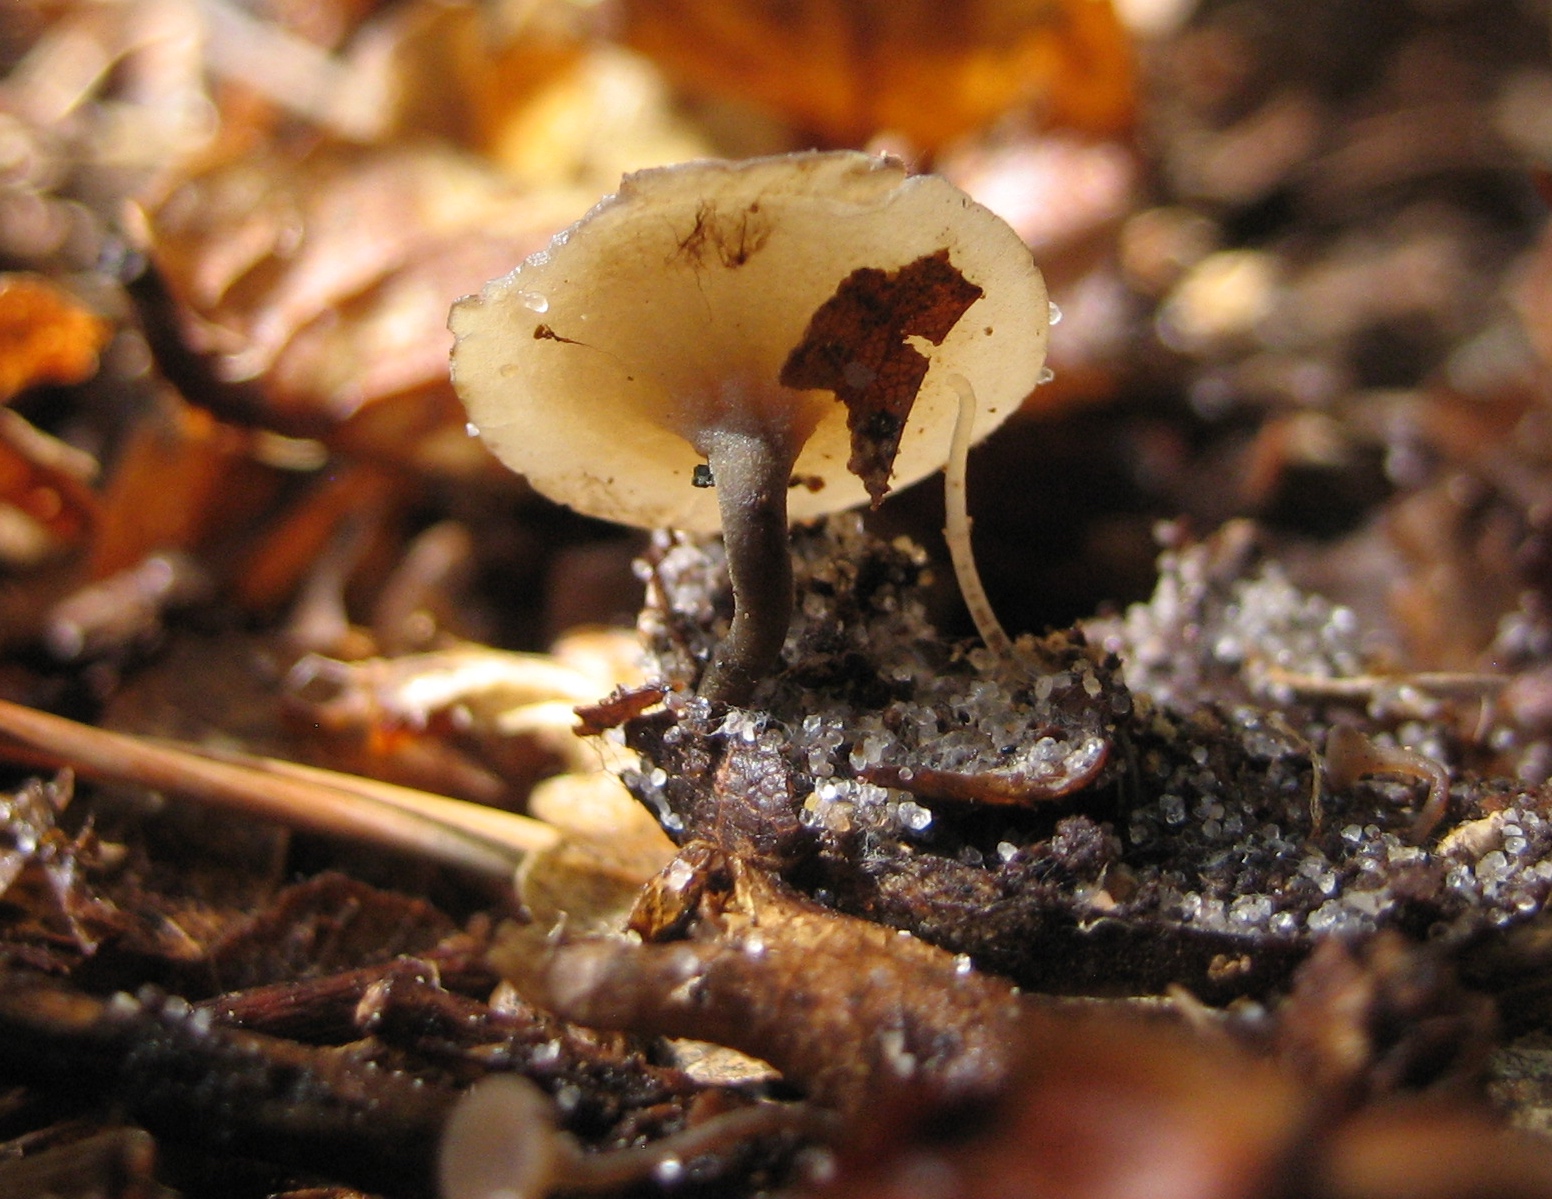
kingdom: Fungi
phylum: Ascomycota
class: Leotiomycetes
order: Helotiales
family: Sclerotiniaceae
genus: Ciboria
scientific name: Ciboria rufofusca
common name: kogleskæl-knoldskive
